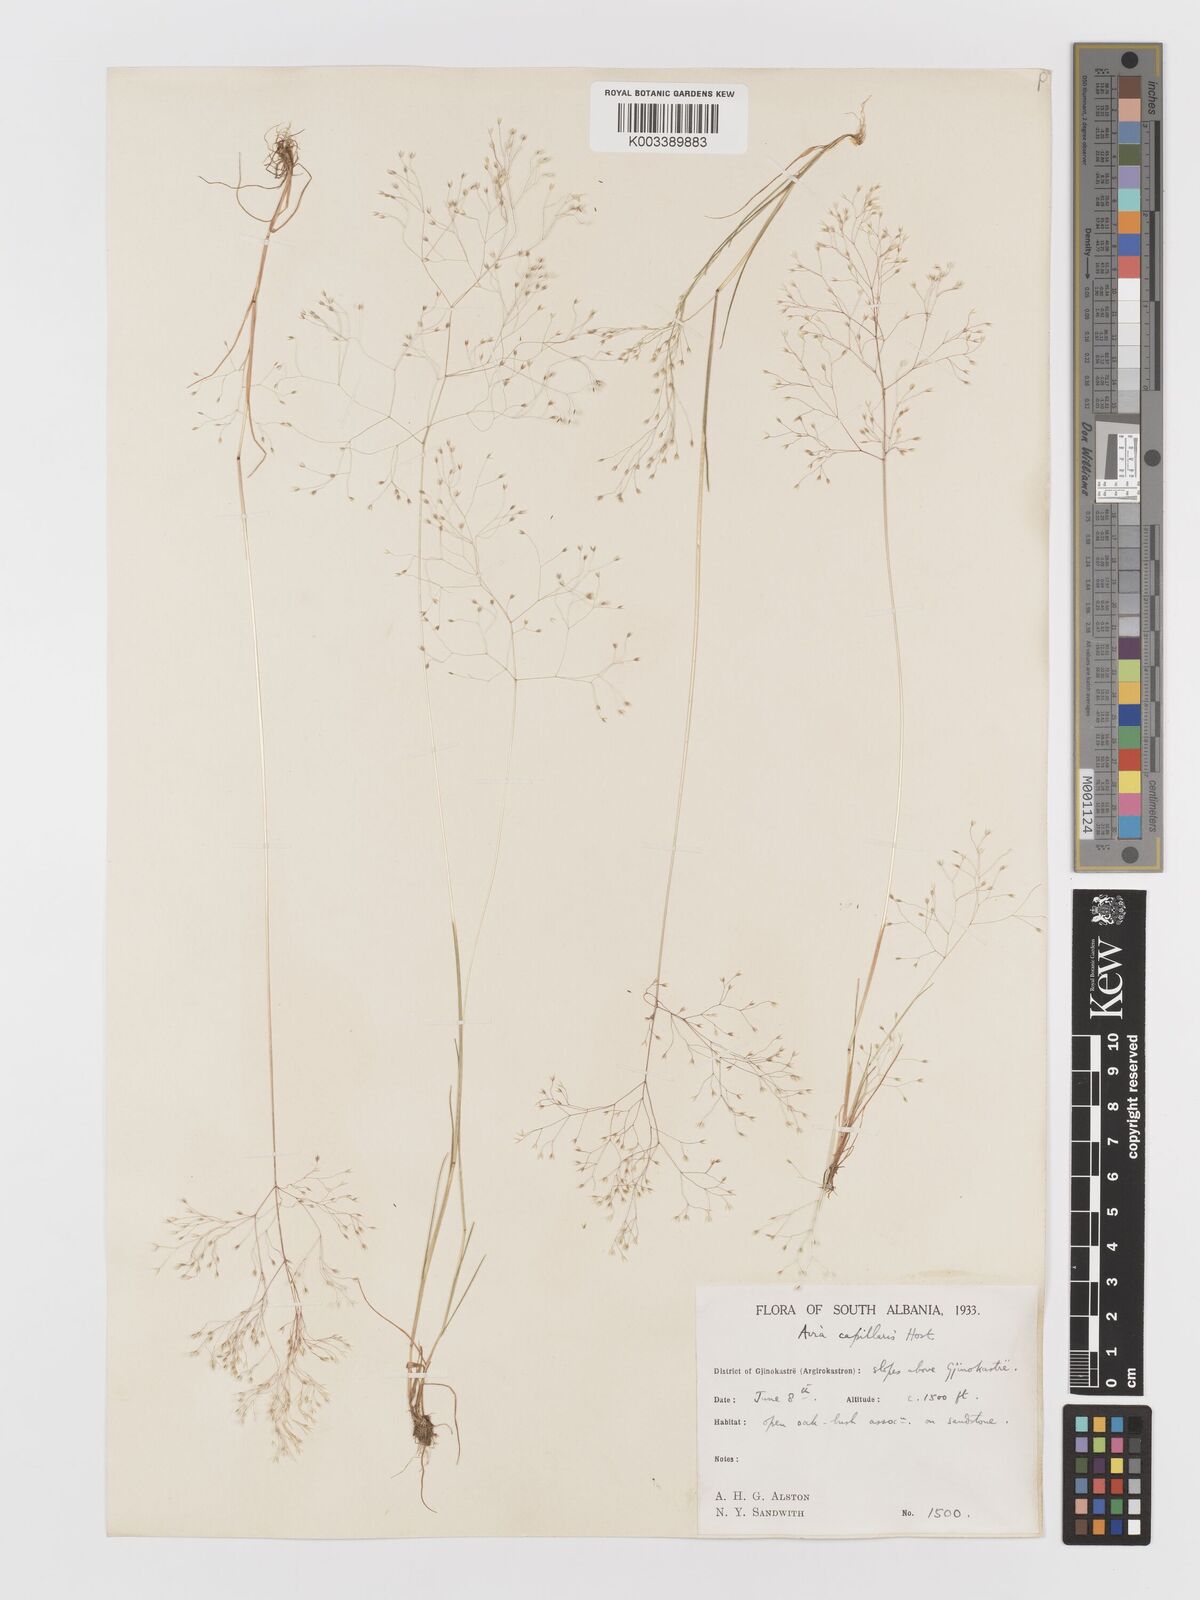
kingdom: Plantae
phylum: Tracheophyta
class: Liliopsida
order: Poales
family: Poaceae
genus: Aira
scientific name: Aira elegans
